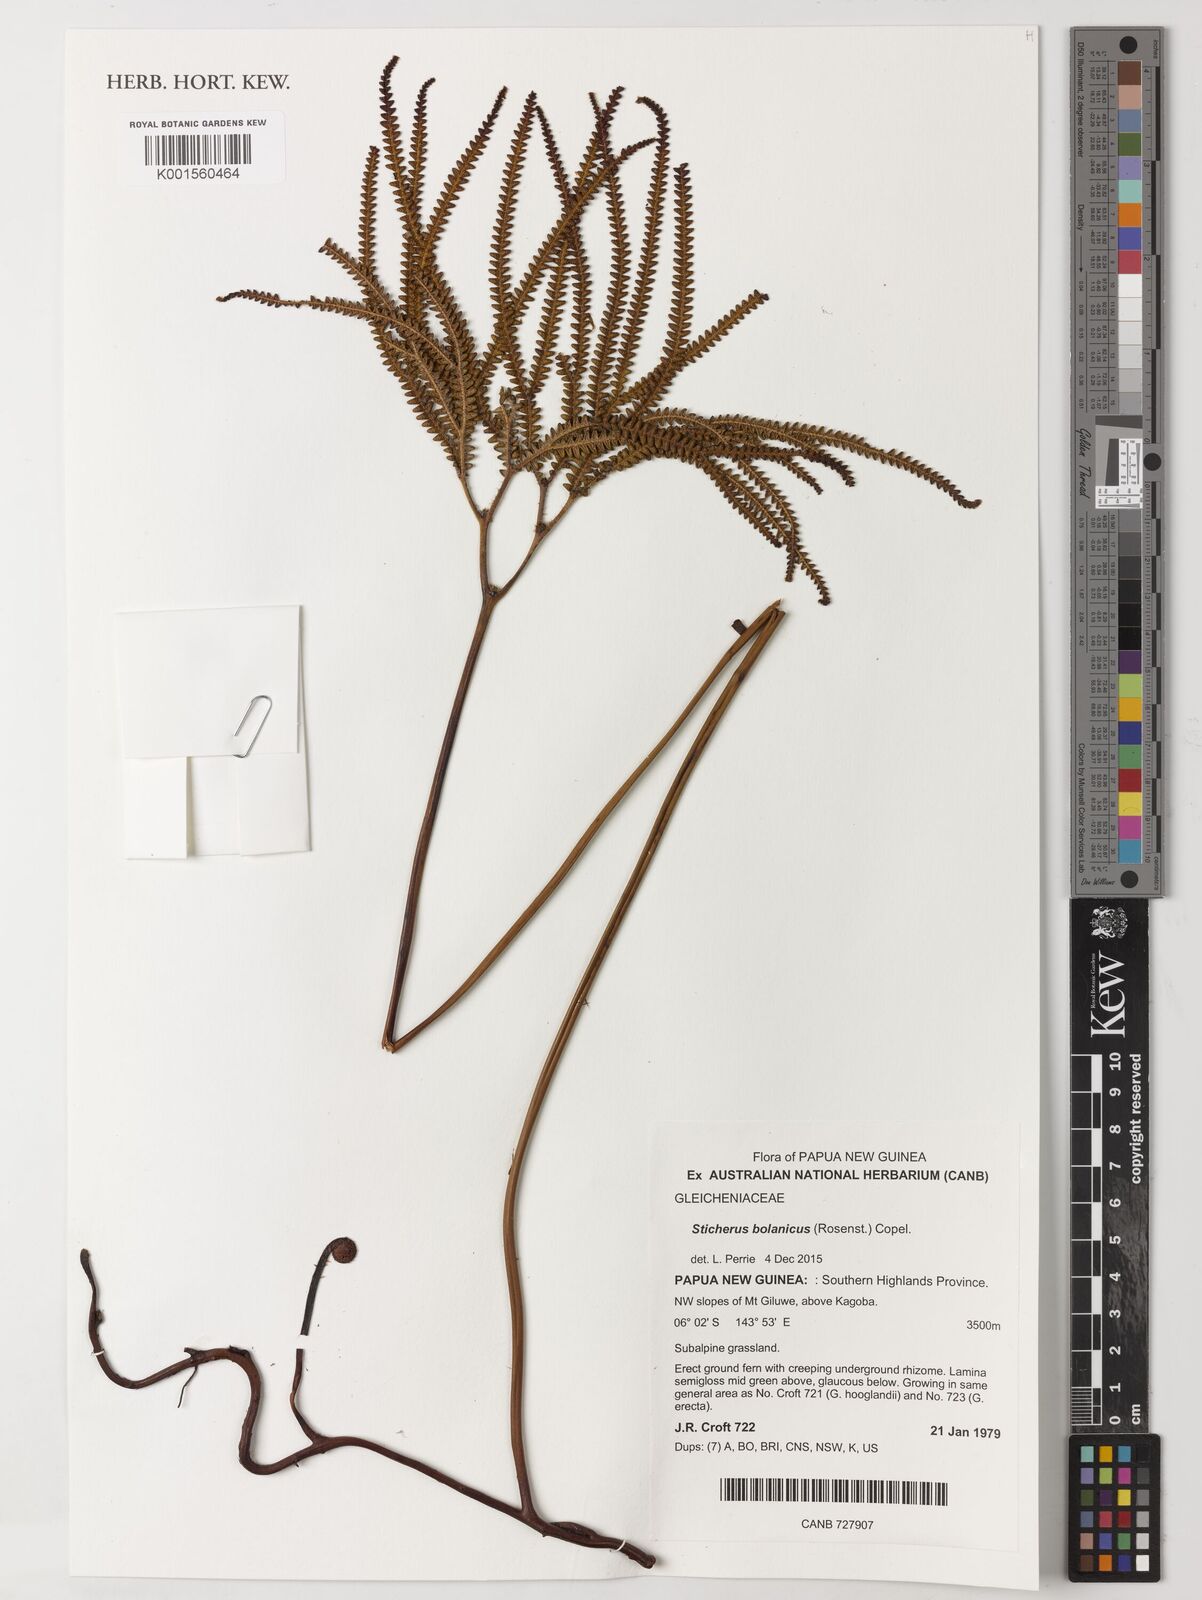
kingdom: Plantae
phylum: Tracheophyta
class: Polypodiopsida
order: Gleicheniales
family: Gleicheniaceae
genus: Sticherus
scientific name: Sticherus bolanicus
